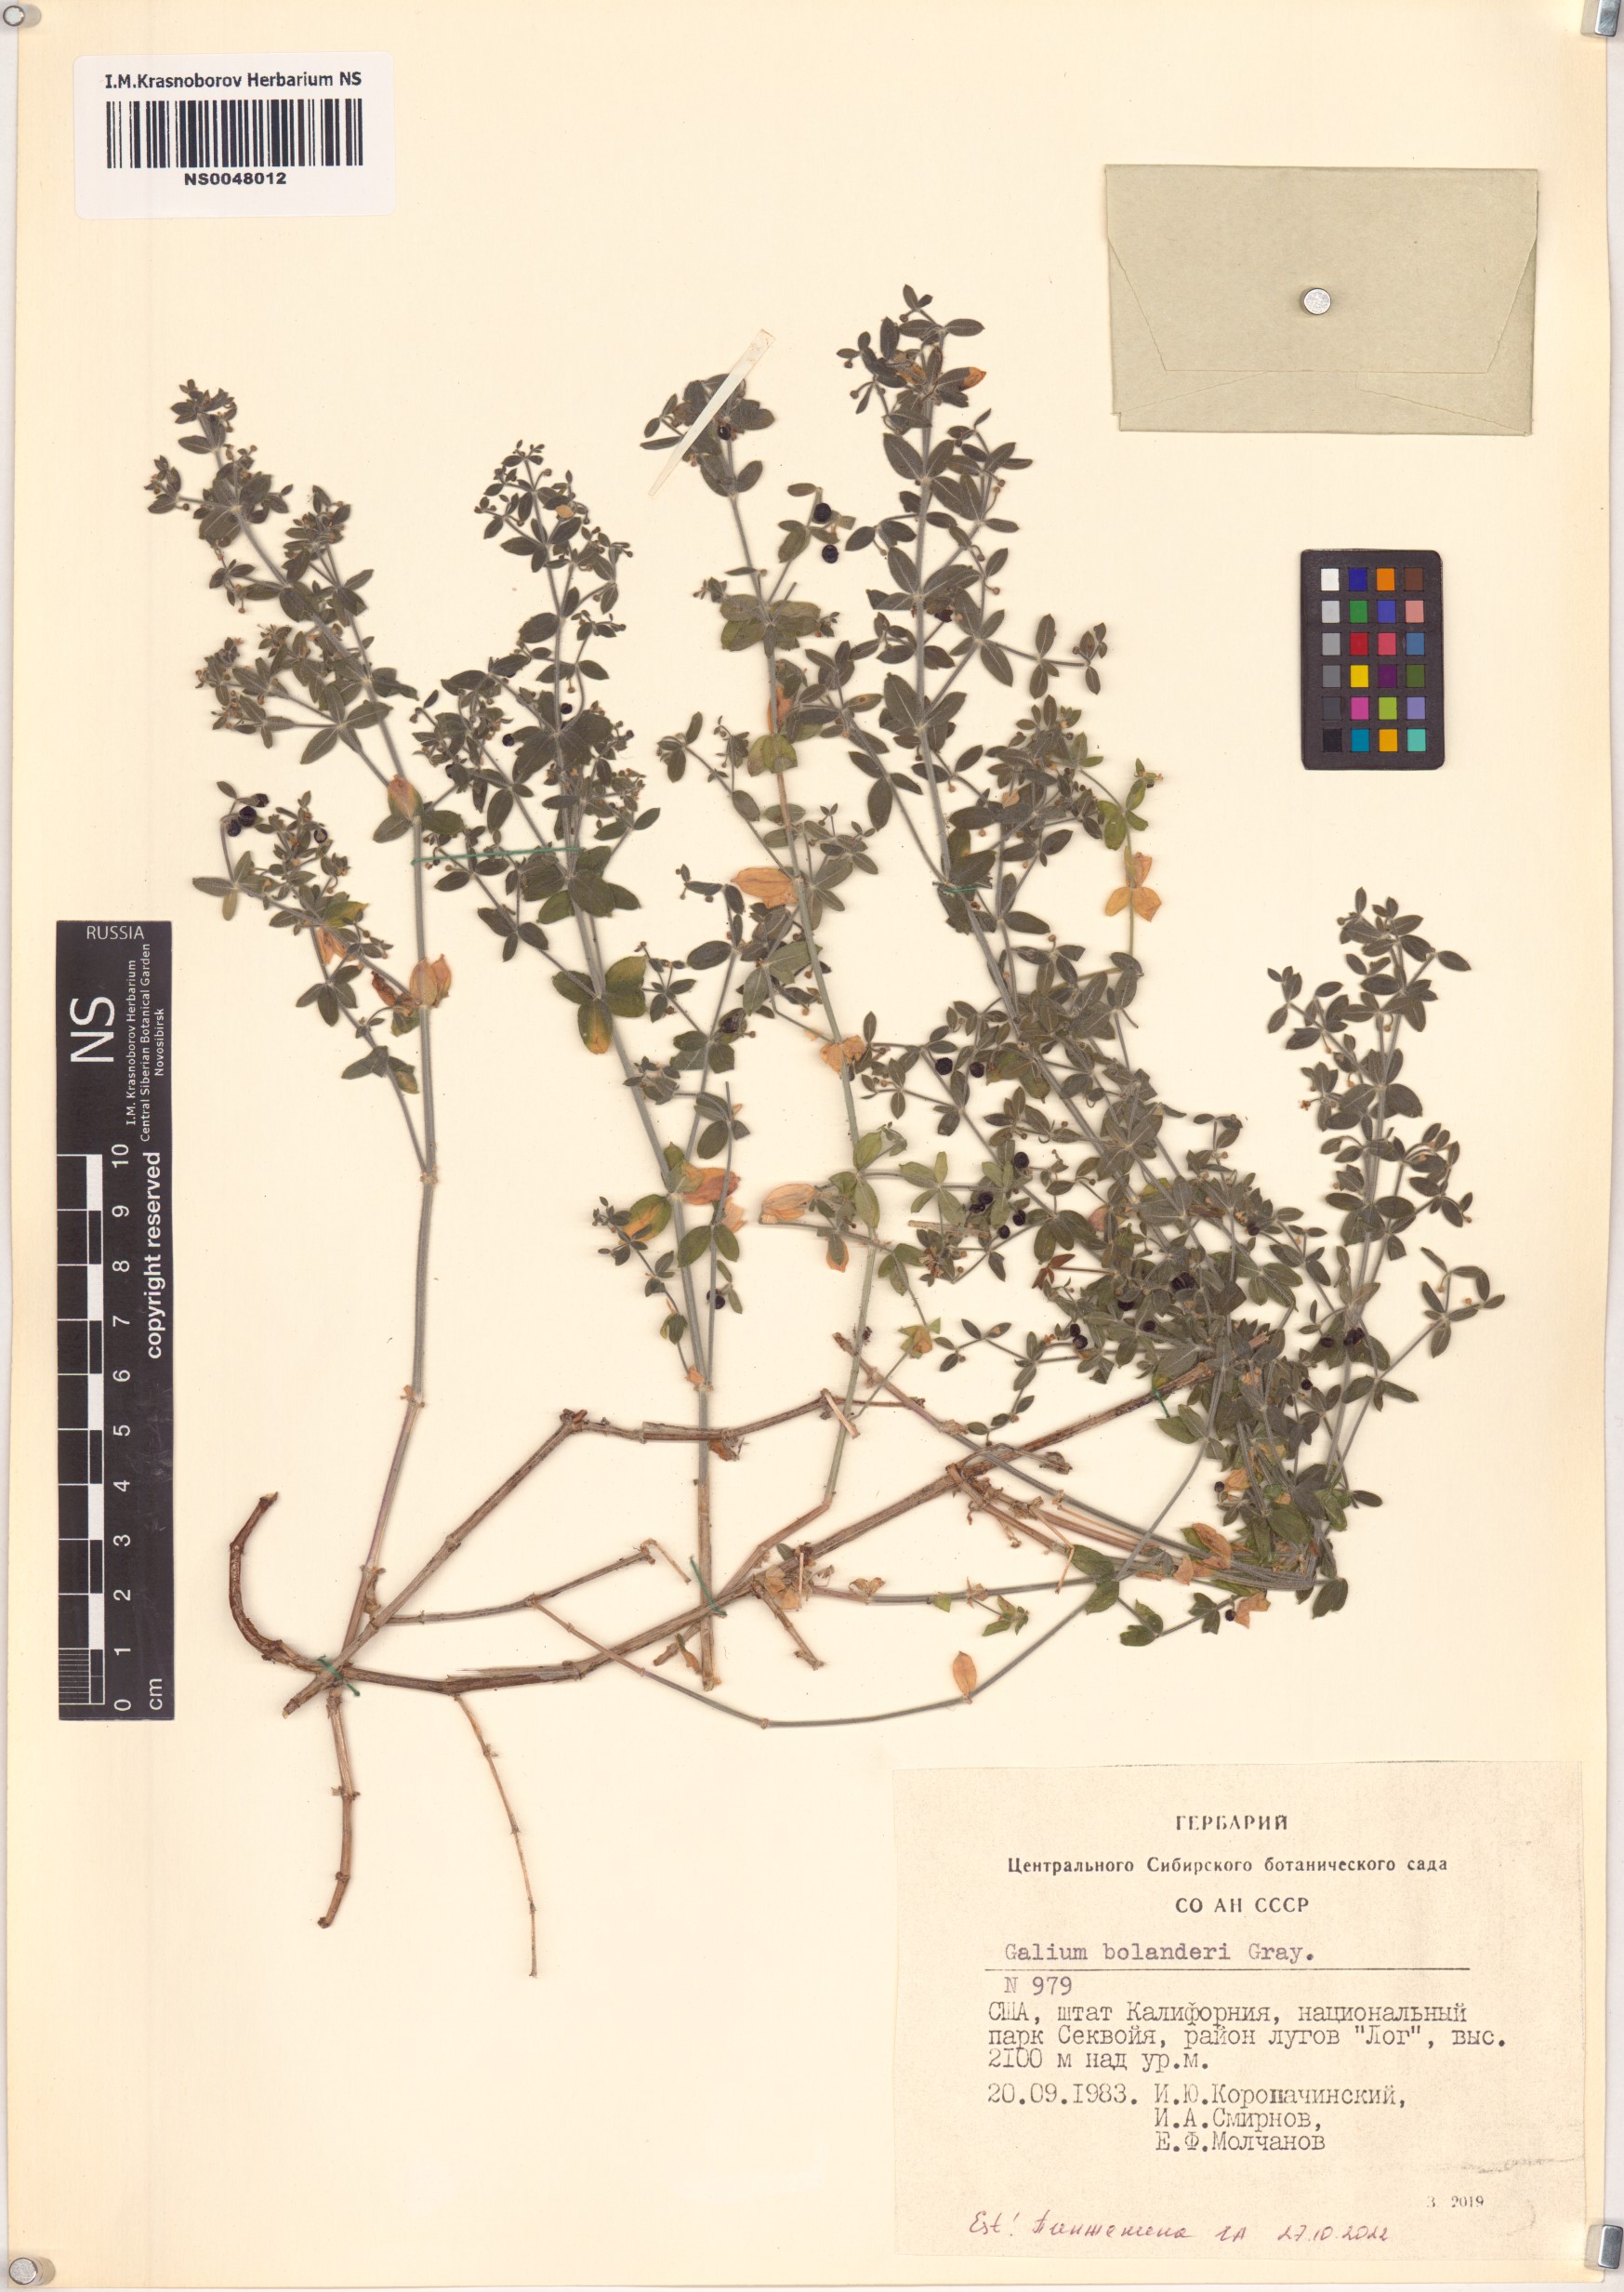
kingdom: Plantae
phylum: Tracheophyta
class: Magnoliopsida
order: Gentianales
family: Rubiaceae
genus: Galium
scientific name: Galium bolanderi
